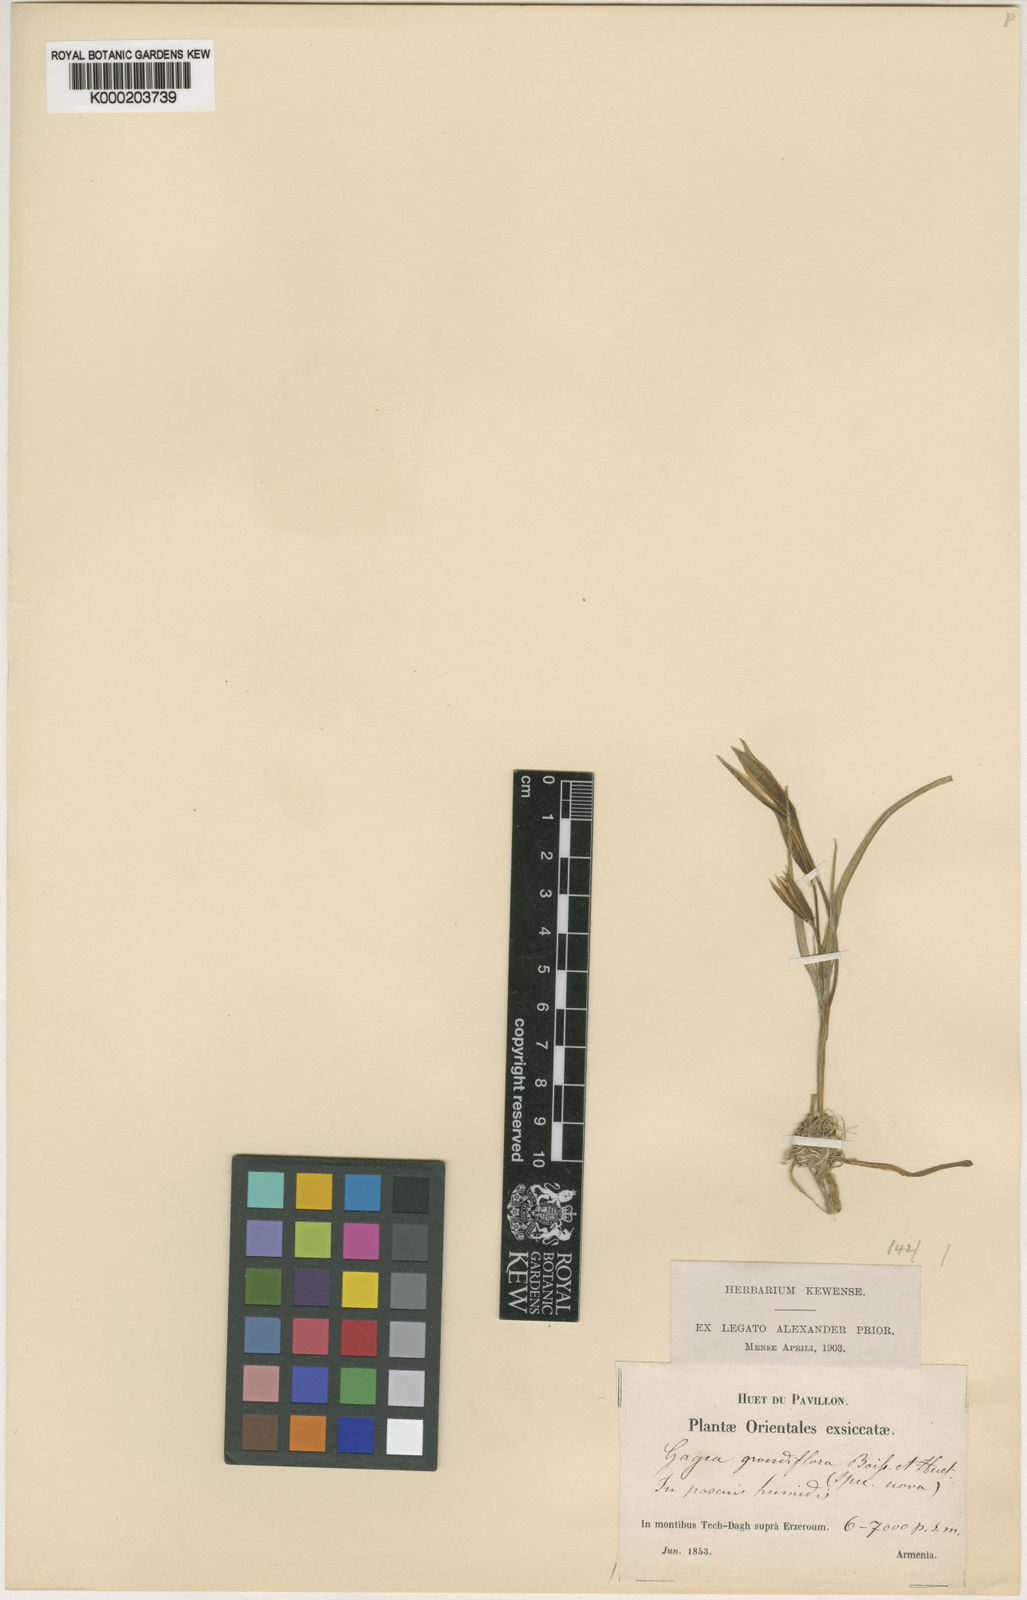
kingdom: Plantae
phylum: Tracheophyta
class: Liliopsida
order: Liliales
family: Liliaceae
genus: Gagea
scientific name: Gagea
